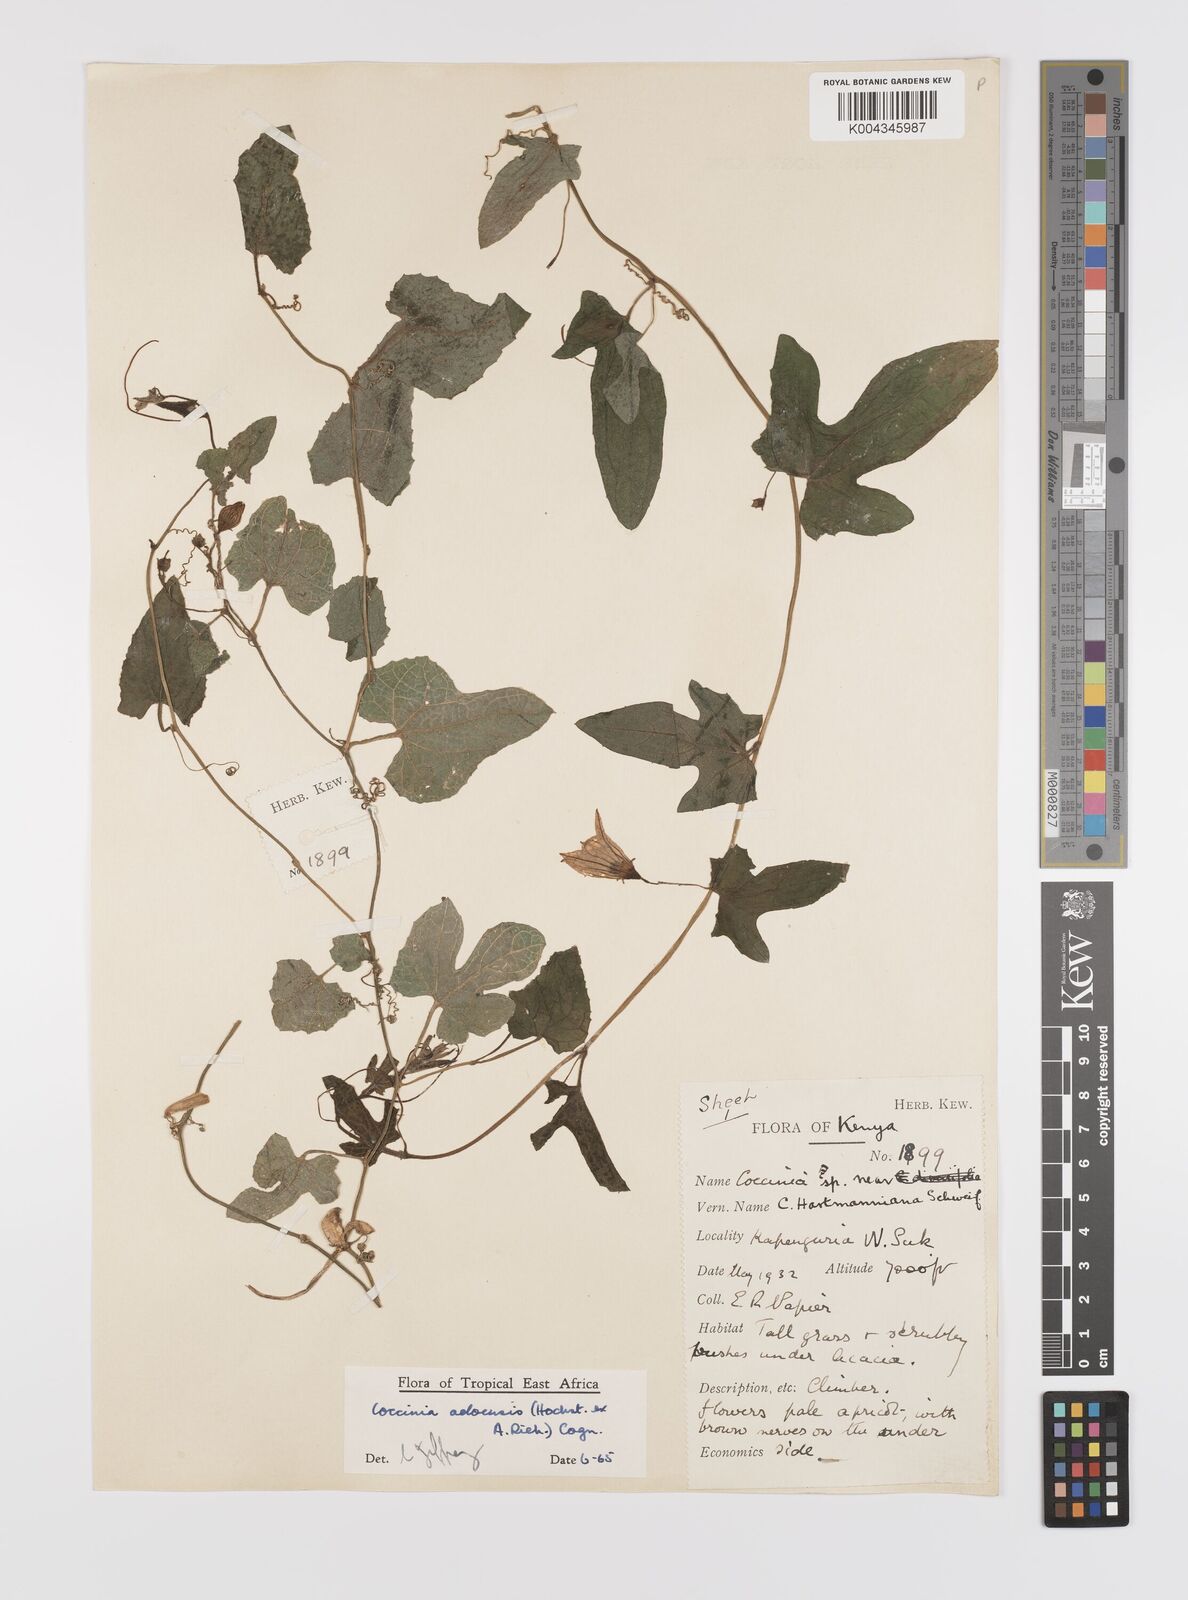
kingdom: Plantae
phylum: Tracheophyta
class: Magnoliopsida
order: Cucurbitales
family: Cucurbitaceae
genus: Coccinia
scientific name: Coccinia adoensis
